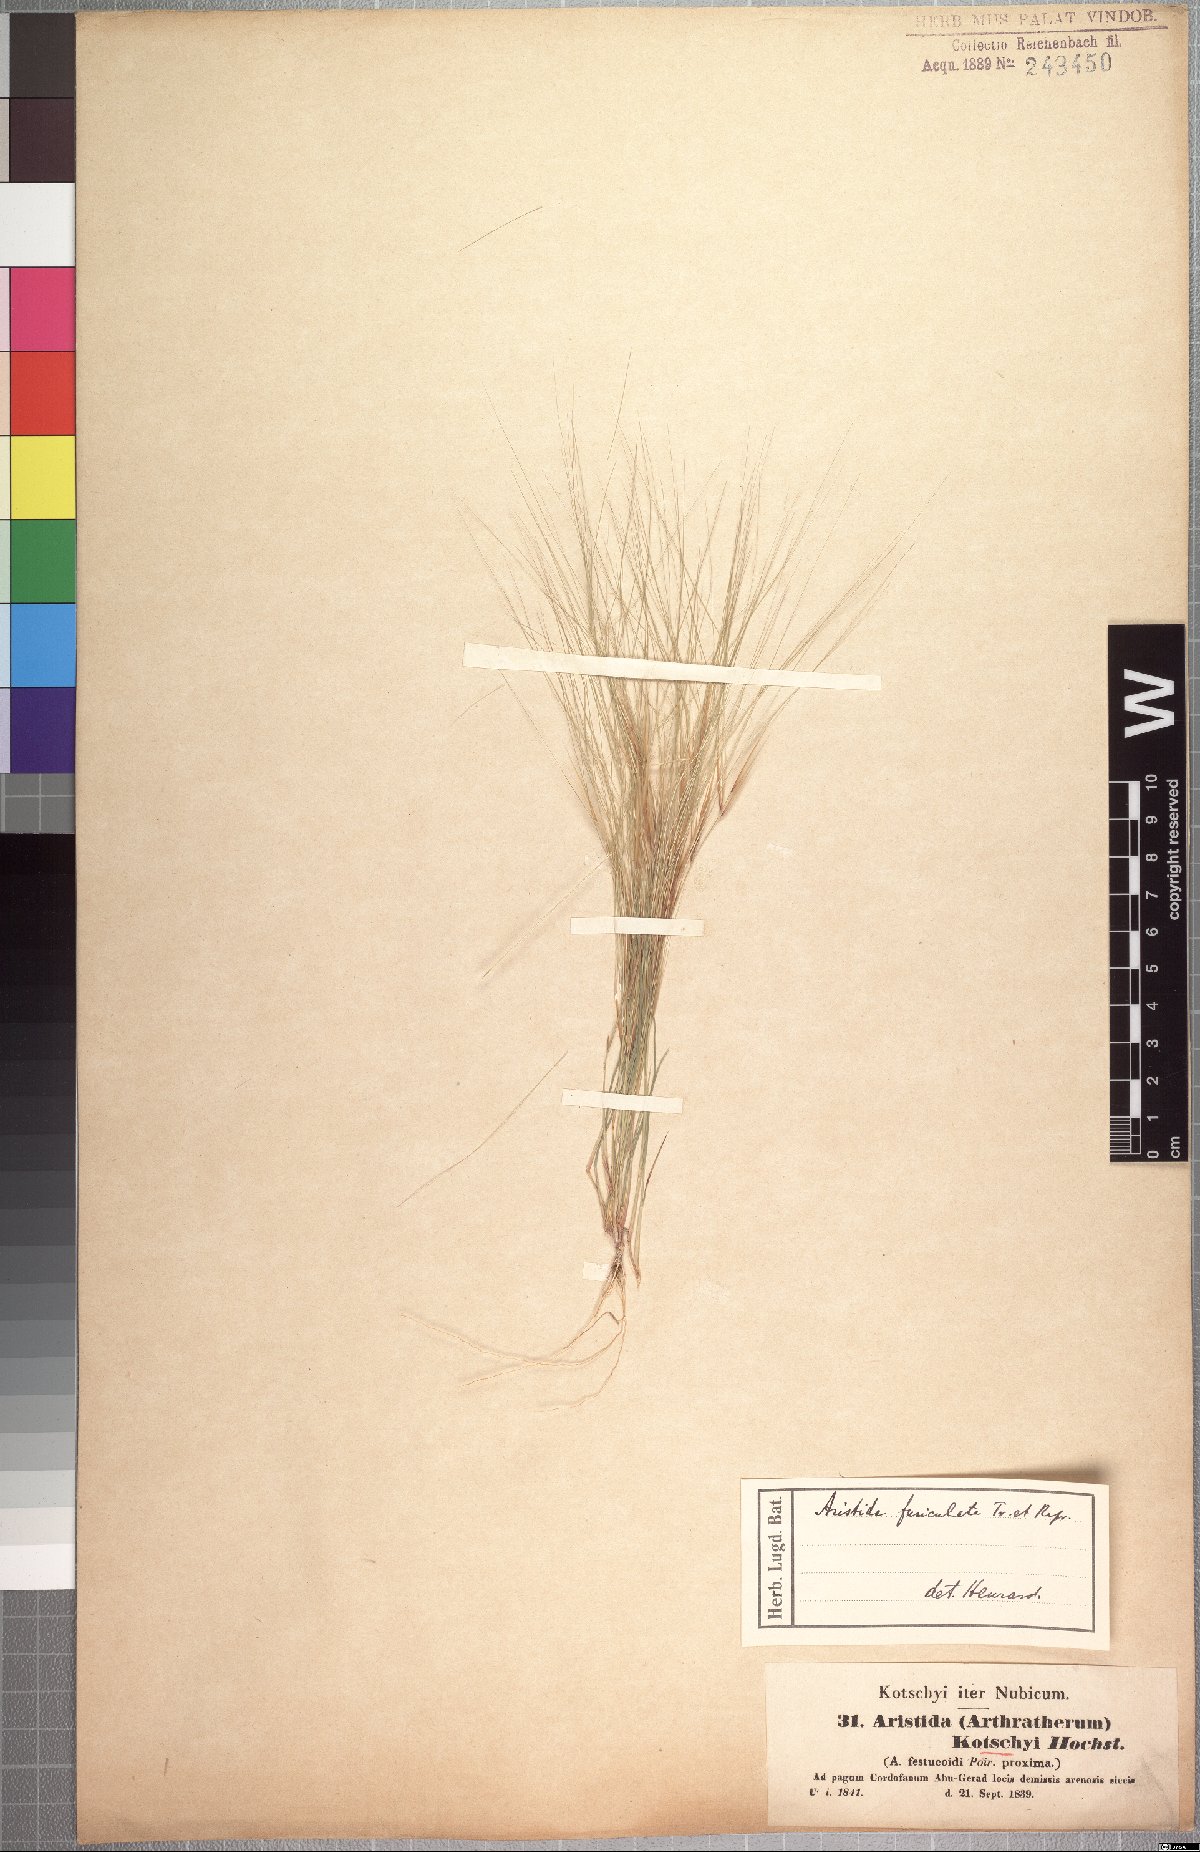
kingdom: Plantae
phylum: Tracheophyta
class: Liliopsida
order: Poales
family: Poaceae
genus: Aristida
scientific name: Aristida funiculata
